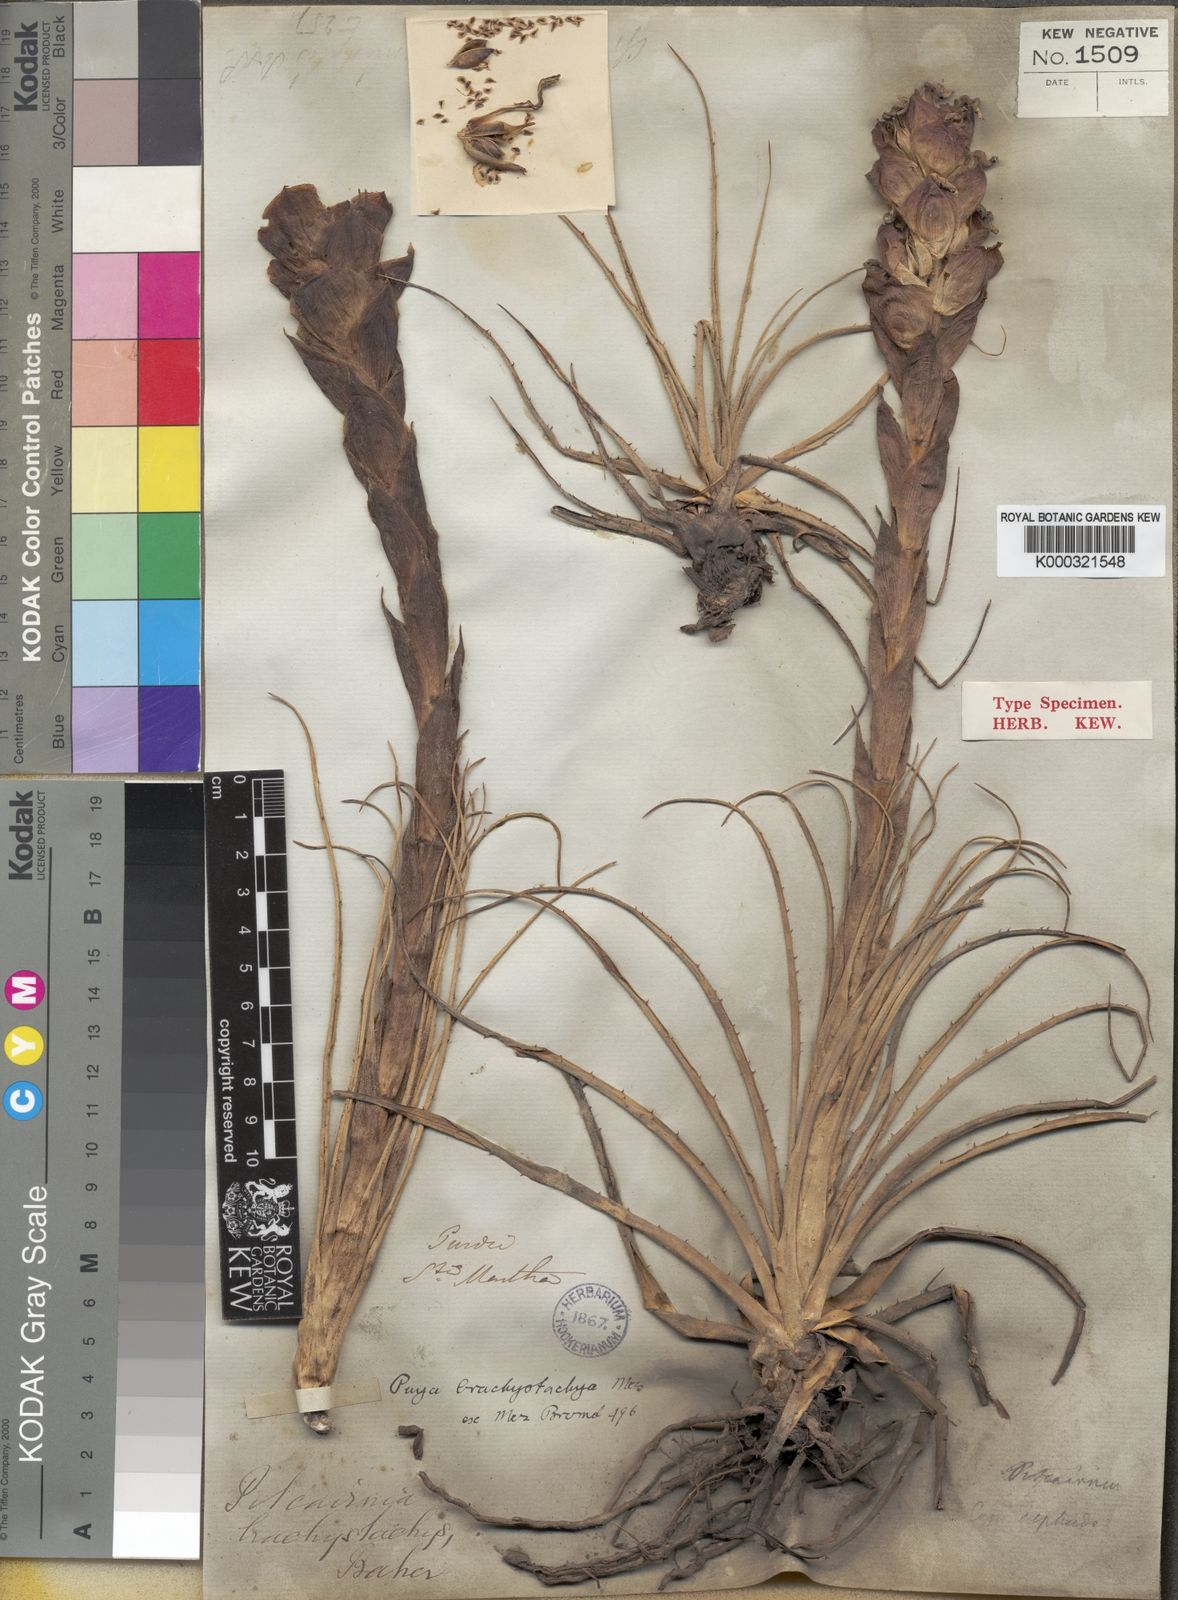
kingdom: Plantae
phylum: Tracheophyta
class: Liliopsida
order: Poales
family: Bromeliaceae
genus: Puya
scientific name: Puya brachystachya
